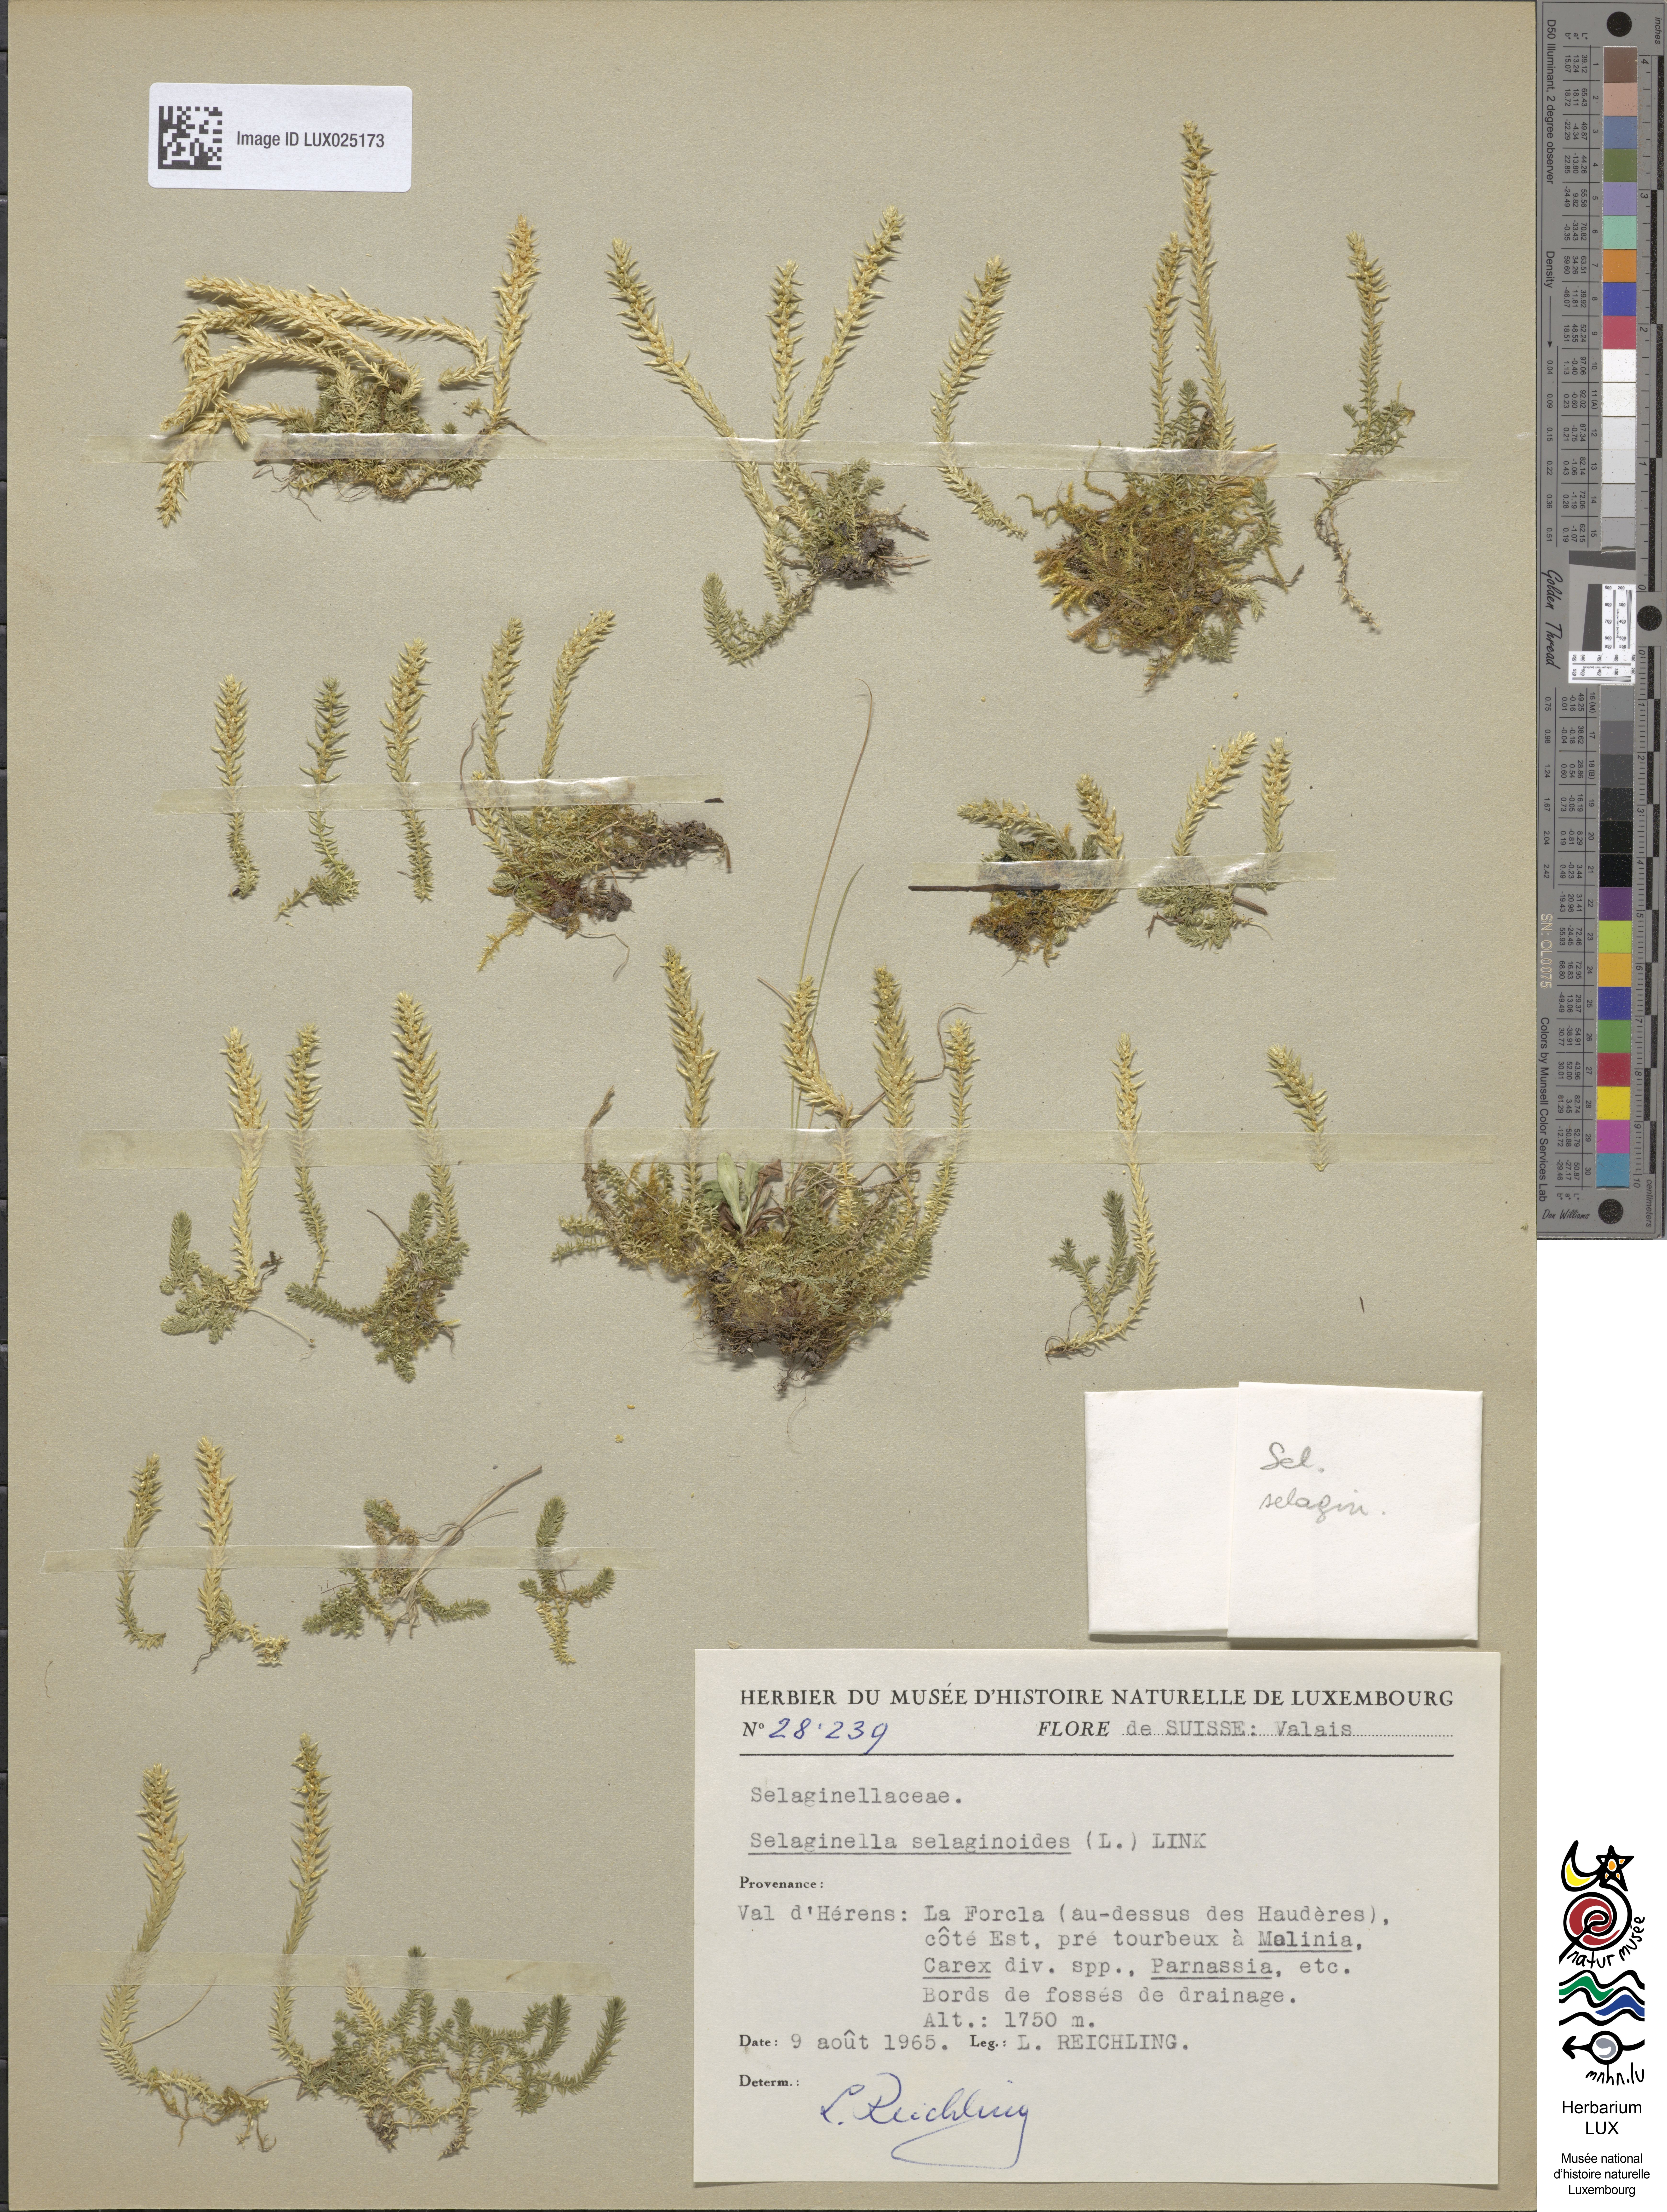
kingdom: Plantae
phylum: Tracheophyta
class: Lycopodiopsida
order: Selaginellales
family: Selaginellaceae
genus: Selaginella
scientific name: Selaginella selaginoides
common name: Prickly mountain-moss
